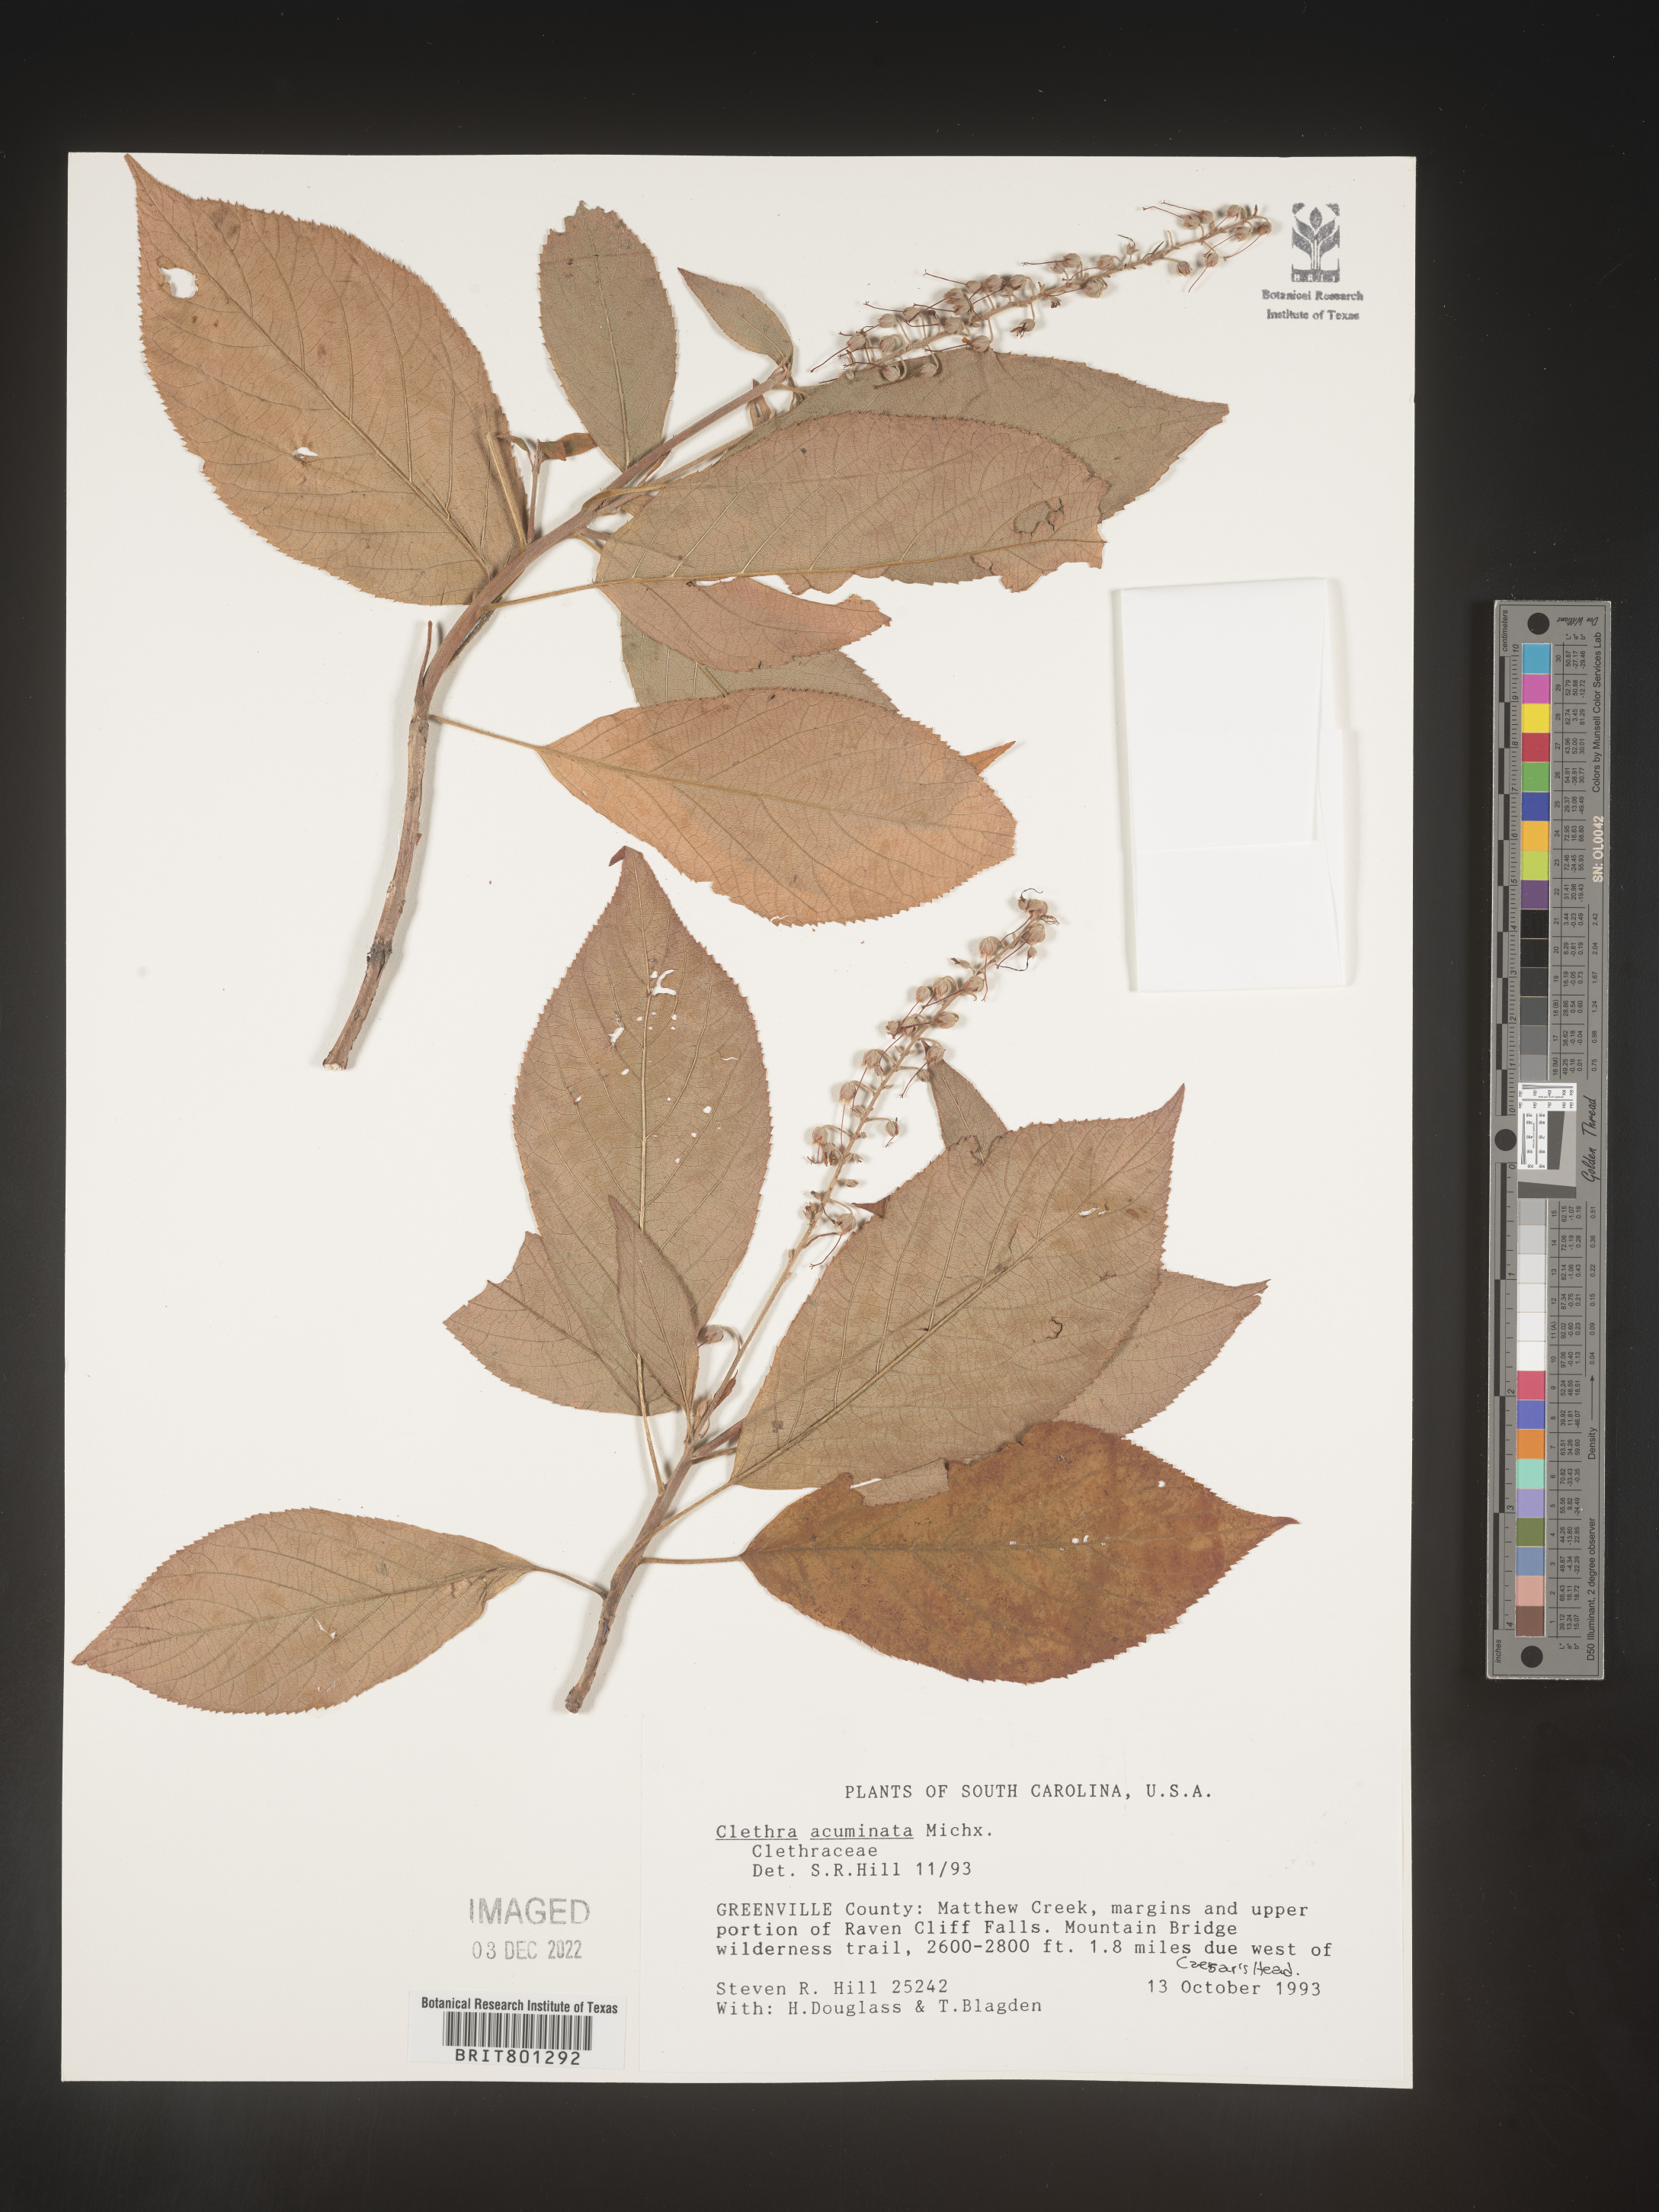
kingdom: Plantae
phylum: Tracheophyta
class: Magnoliopsida
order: Ericales
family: Clethraceae
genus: Clethra
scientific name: Clethra acuminata
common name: Mountain sweet pepperbush
